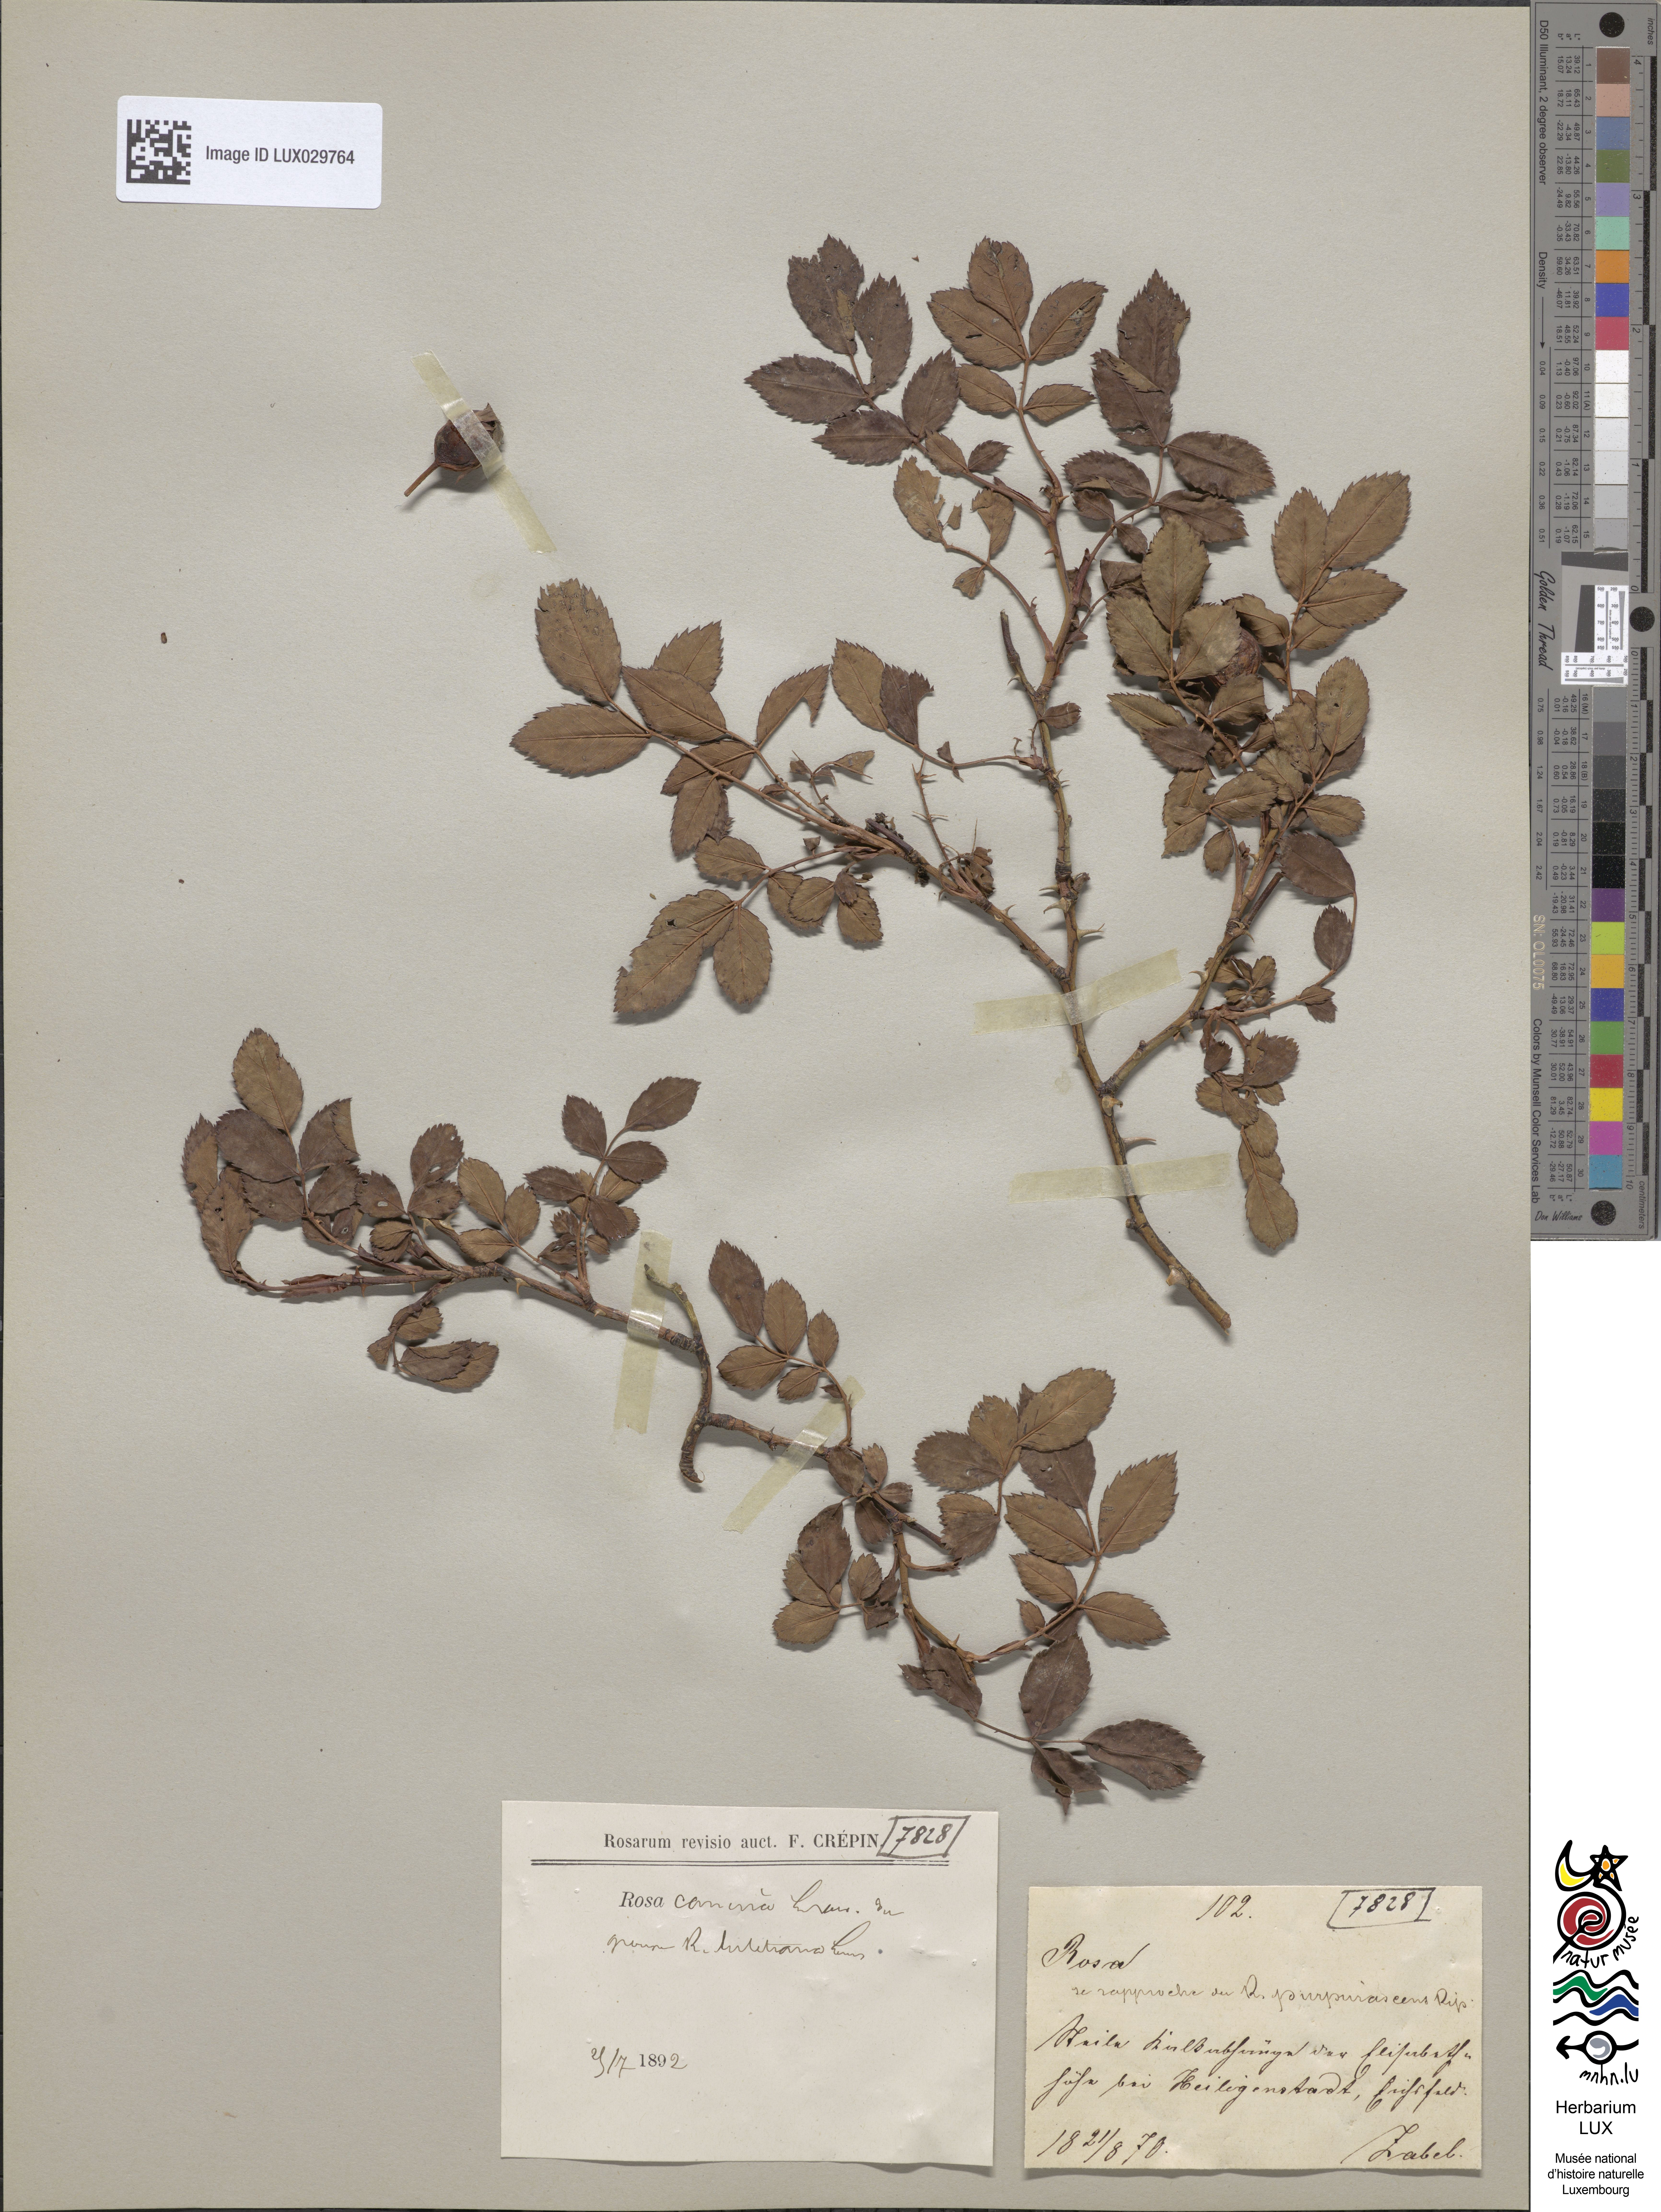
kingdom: Plantae
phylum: Tracheophyta
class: Magnoliopsida
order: Rosales
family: Rosaceae
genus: Rosa
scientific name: Rosa canina
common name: Dog rose
